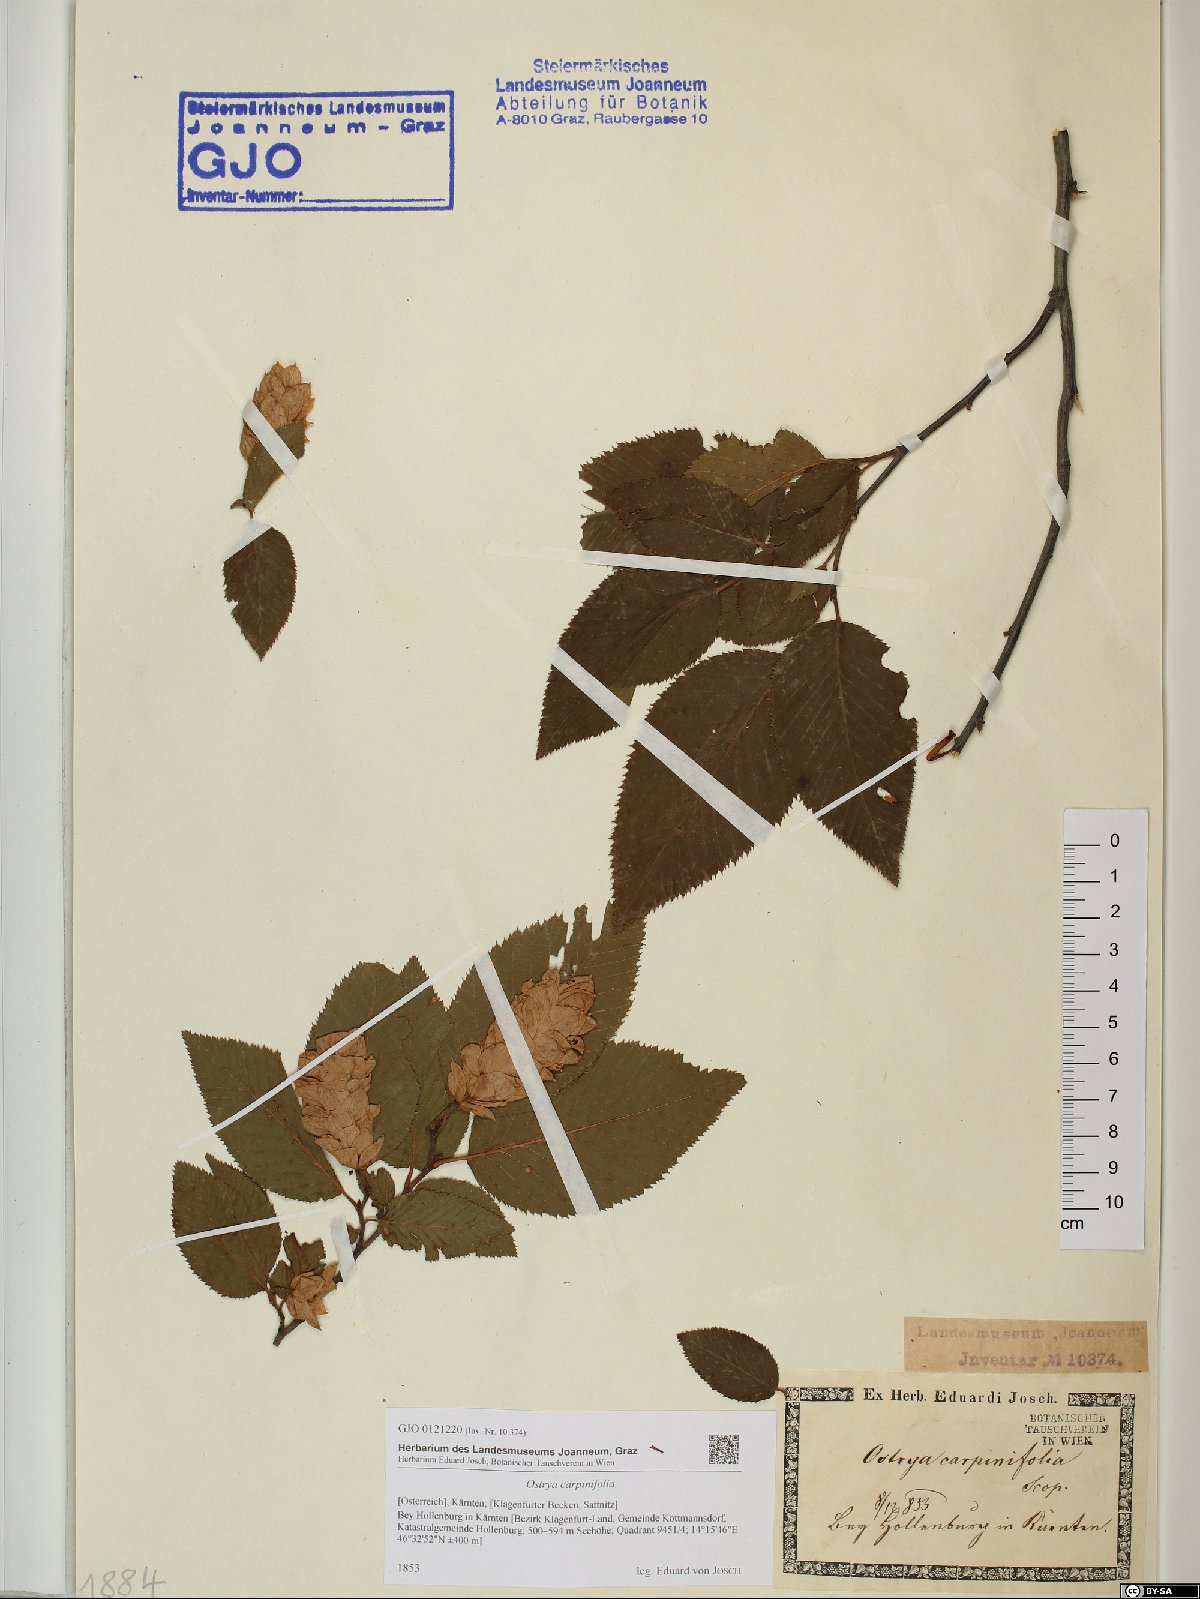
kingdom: Plantae
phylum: Tracheophyta
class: Magnoliopsida
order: Fagales
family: Betulaceae
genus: Ostrya
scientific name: Ostrya carpinifolia
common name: European hop-hornbeam
